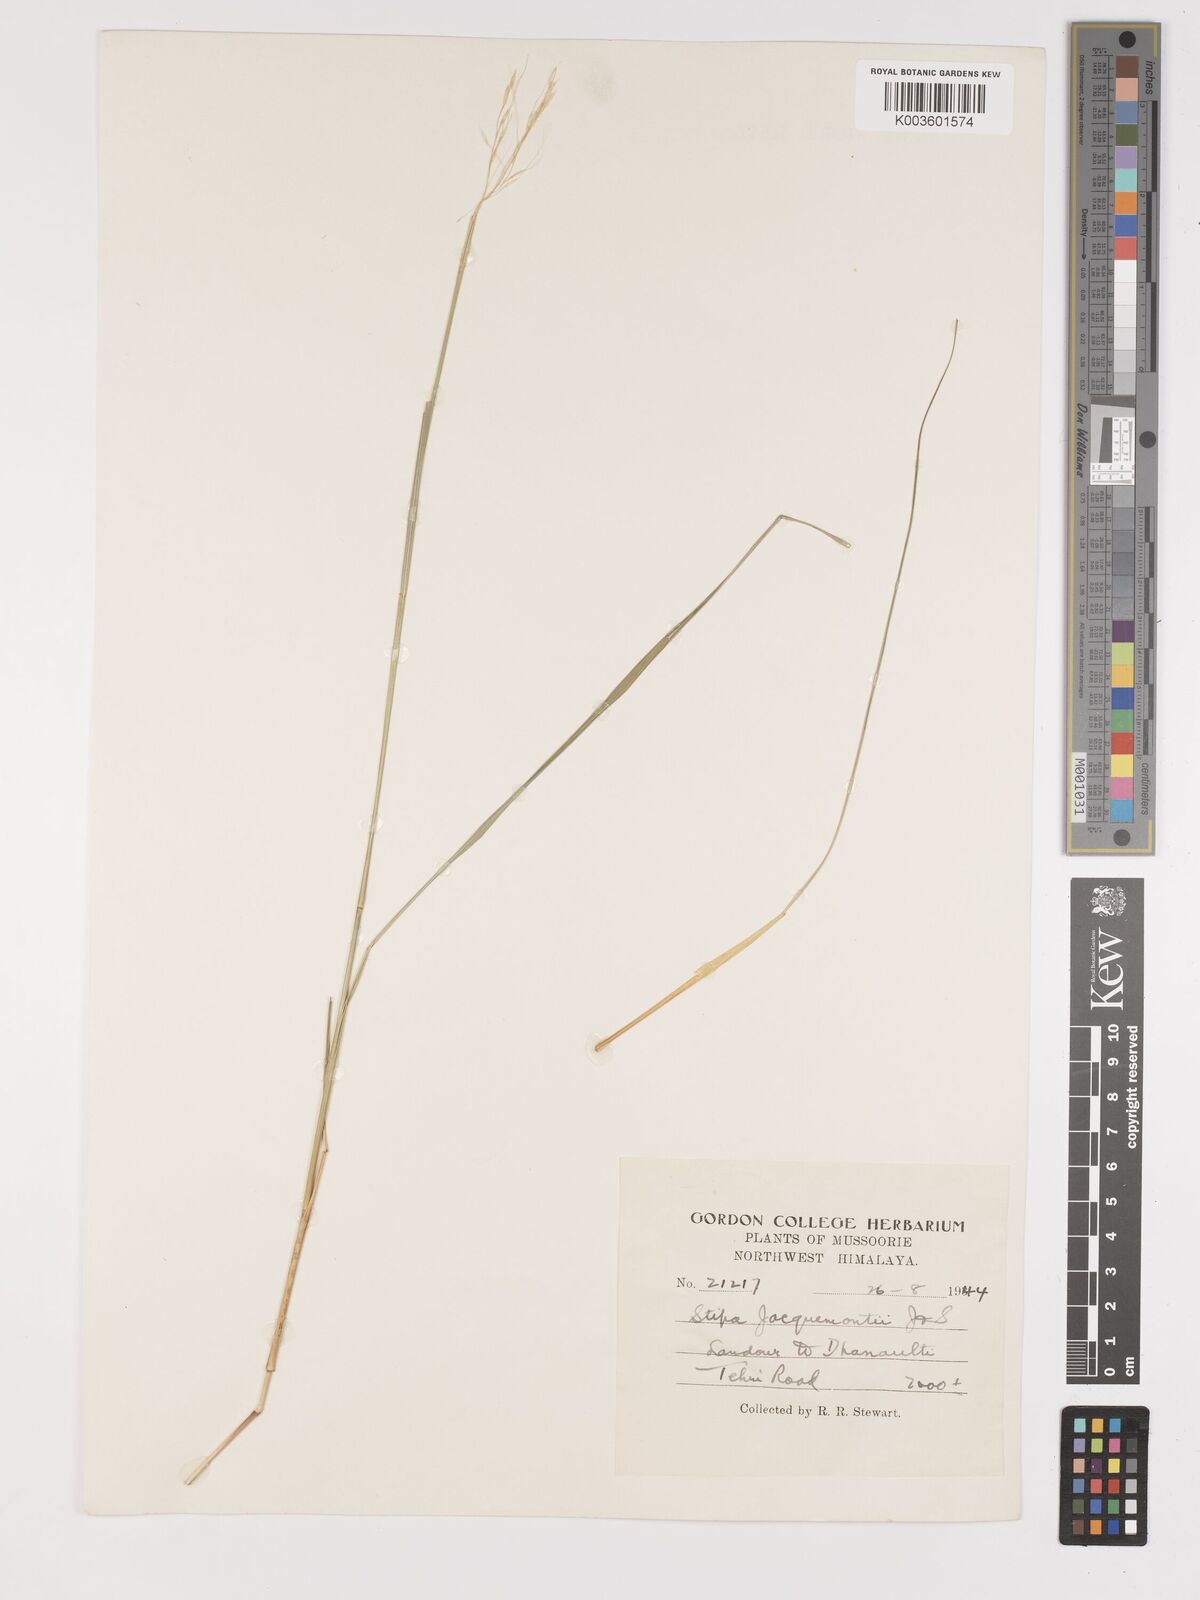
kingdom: Plantae
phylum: Tracheophyta
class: Liliopsida
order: Poales
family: Poaceae
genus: Achnatherum
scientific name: Achnatherum jacquemontii
